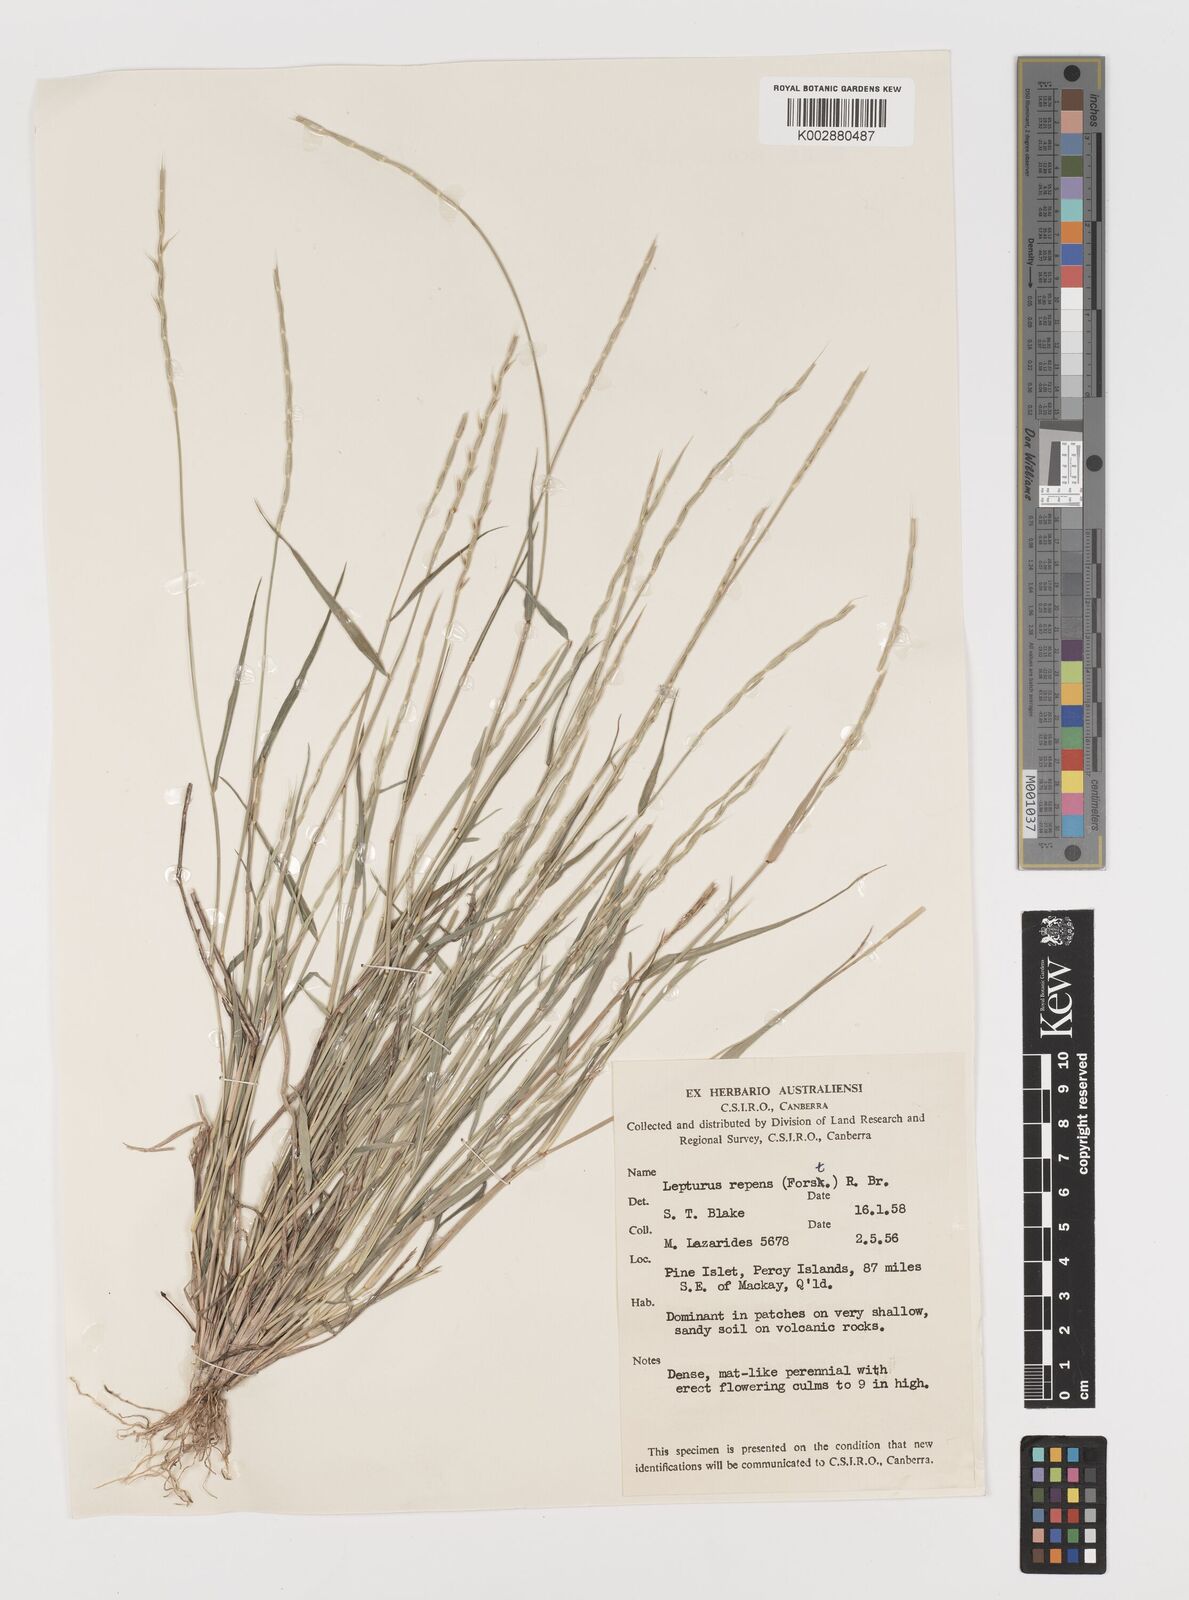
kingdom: Plantae
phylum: Tracheophyta
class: Liliopsida
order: Poales
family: Poaceae
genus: Lepturus
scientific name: Lepturus repens
